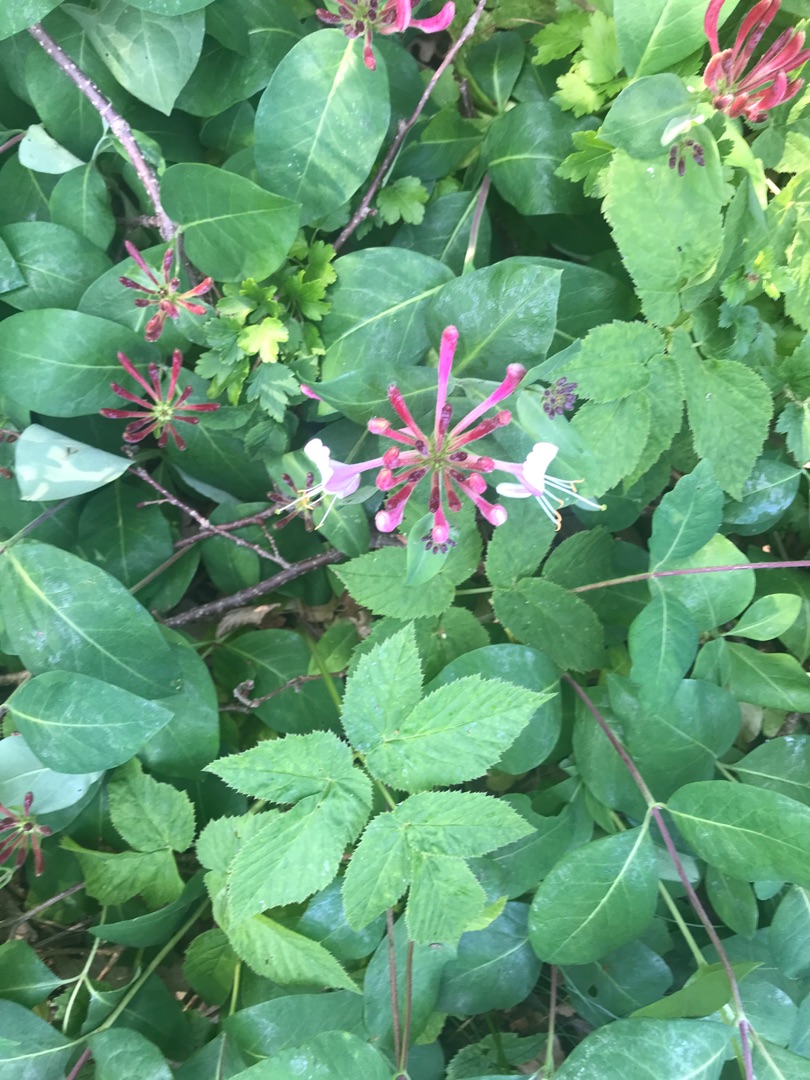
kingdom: Plantae
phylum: Tracheophyta
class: Magnoliopsida
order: Dipsacales
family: Caprifoliaceae
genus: Lonicera
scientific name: Lonicera periclymenum
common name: Almindelig gedeblad
